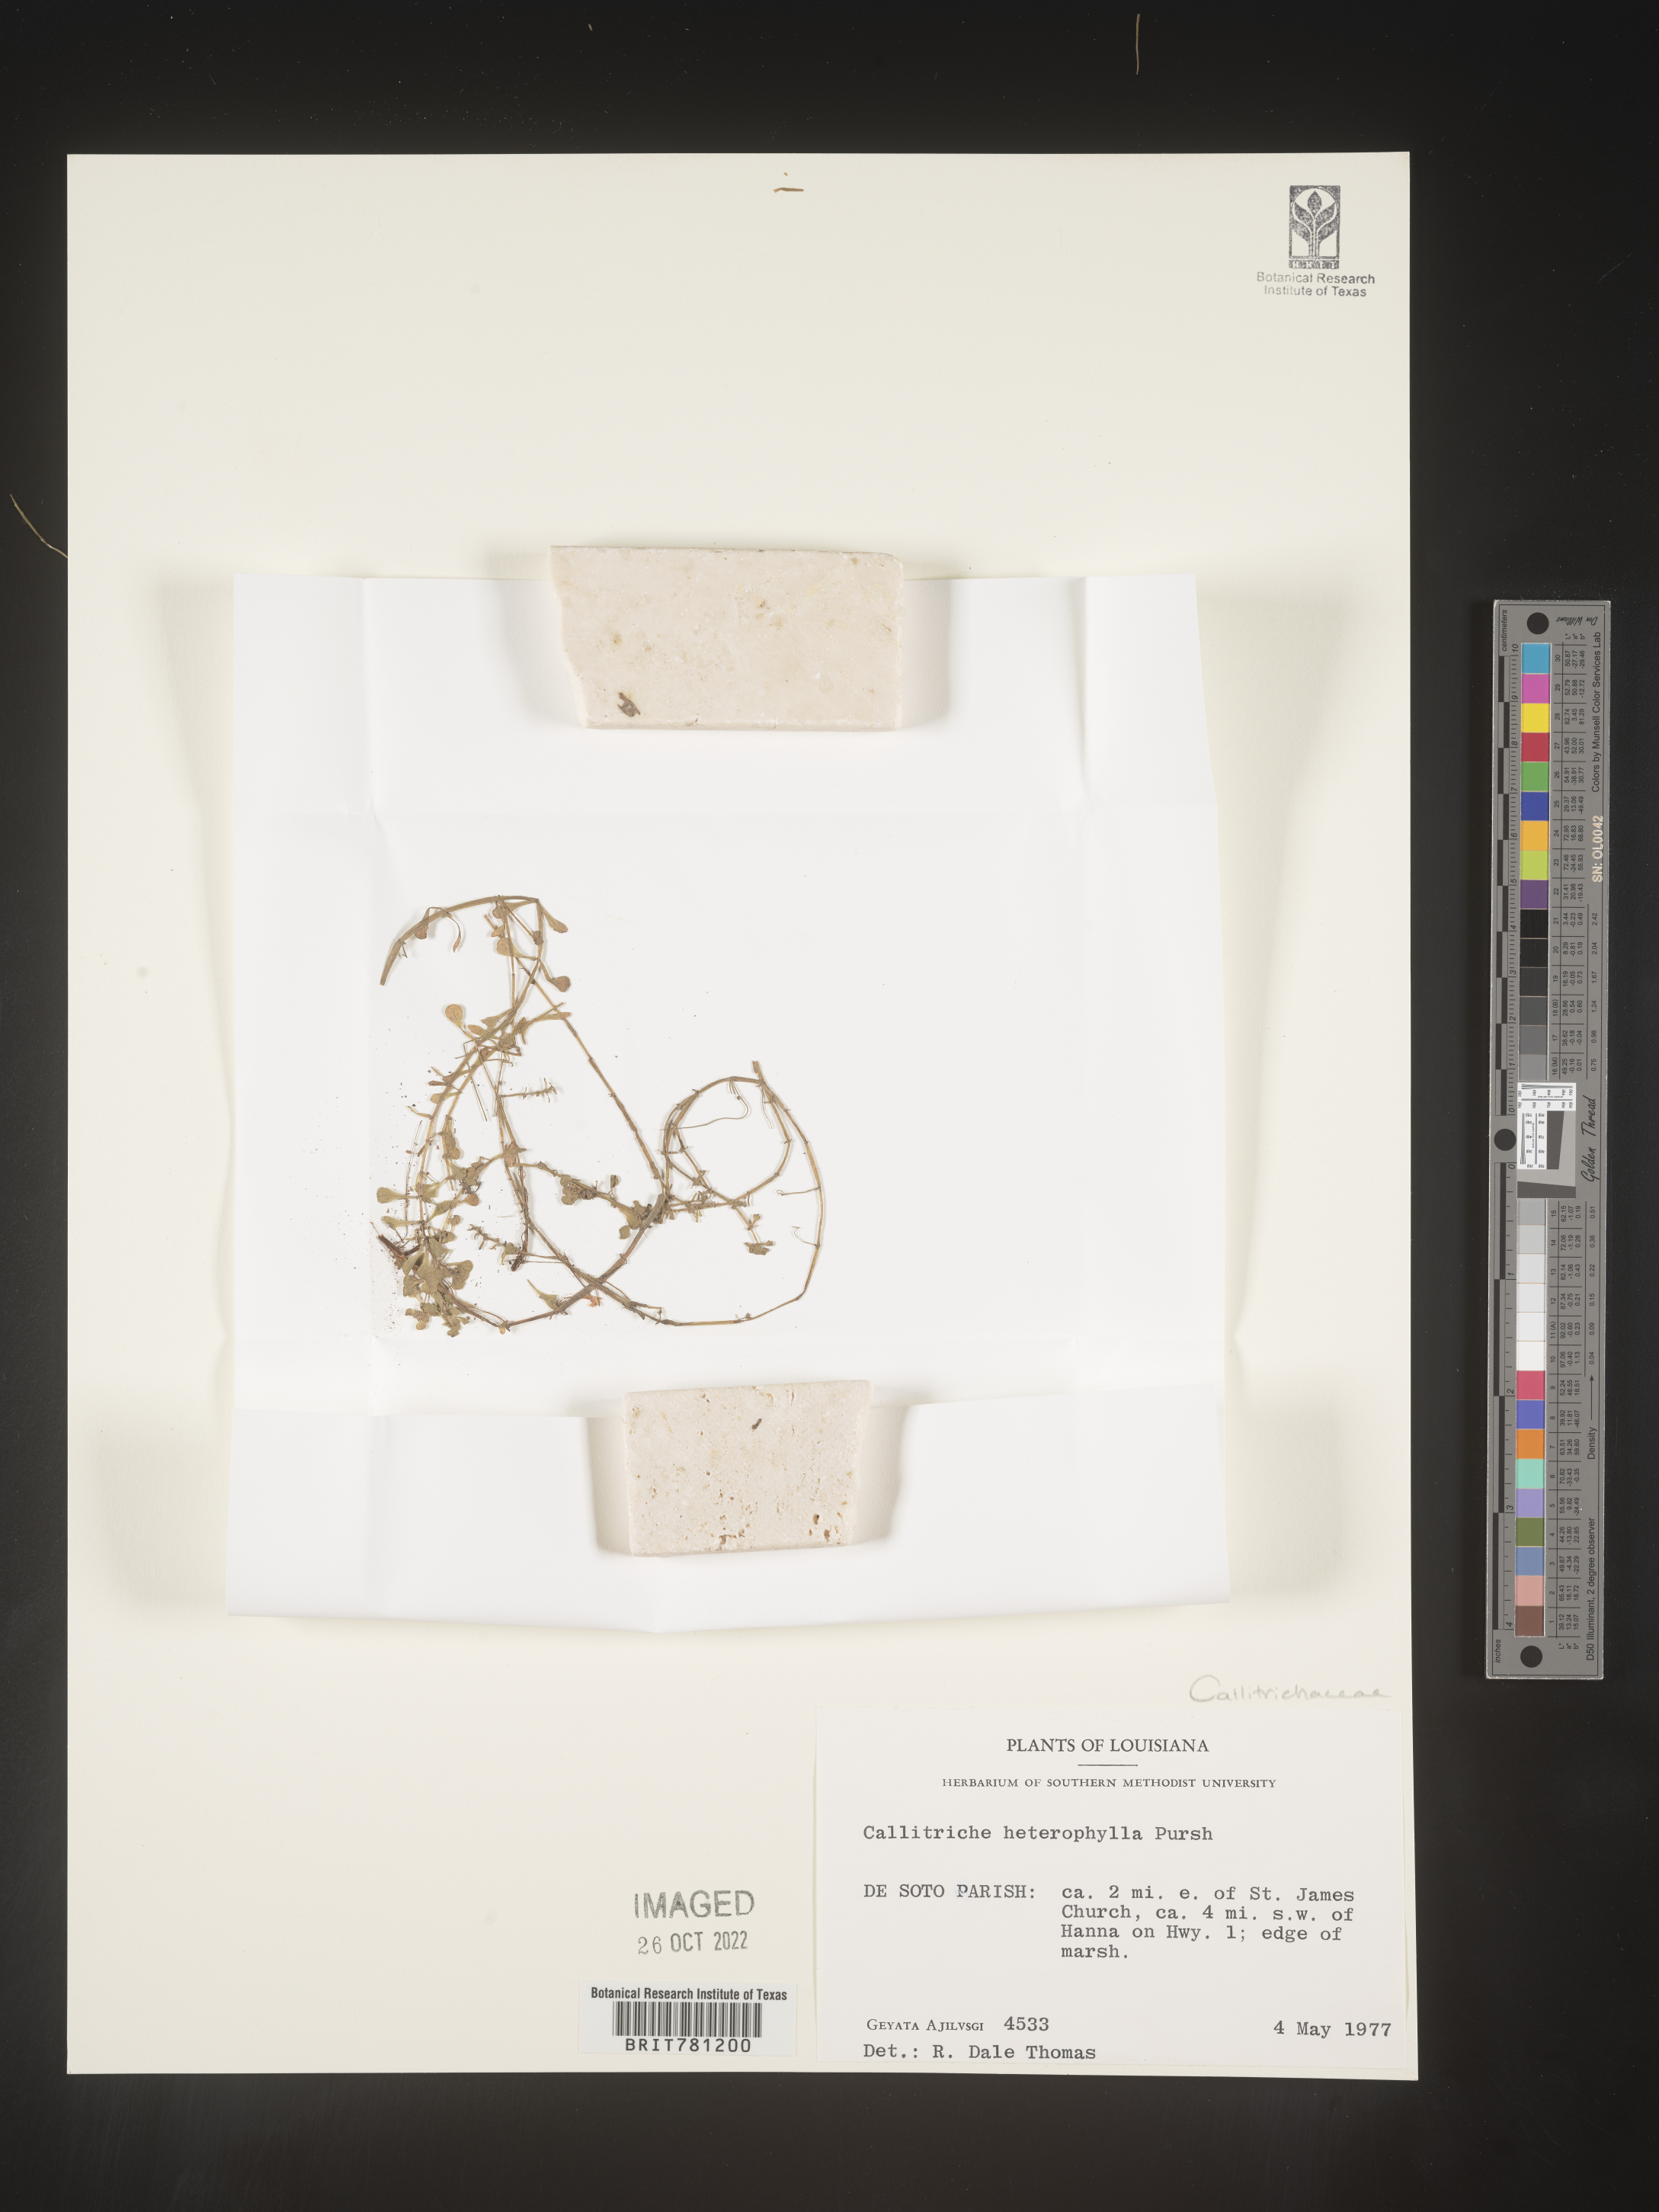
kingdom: Plantae
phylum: Tracheophyta
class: Magnoliopsida
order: Lamiales
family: Plantaginaceae
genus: Callitriche
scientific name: Callitriche heterophylla
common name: Two-headed water-starwort
